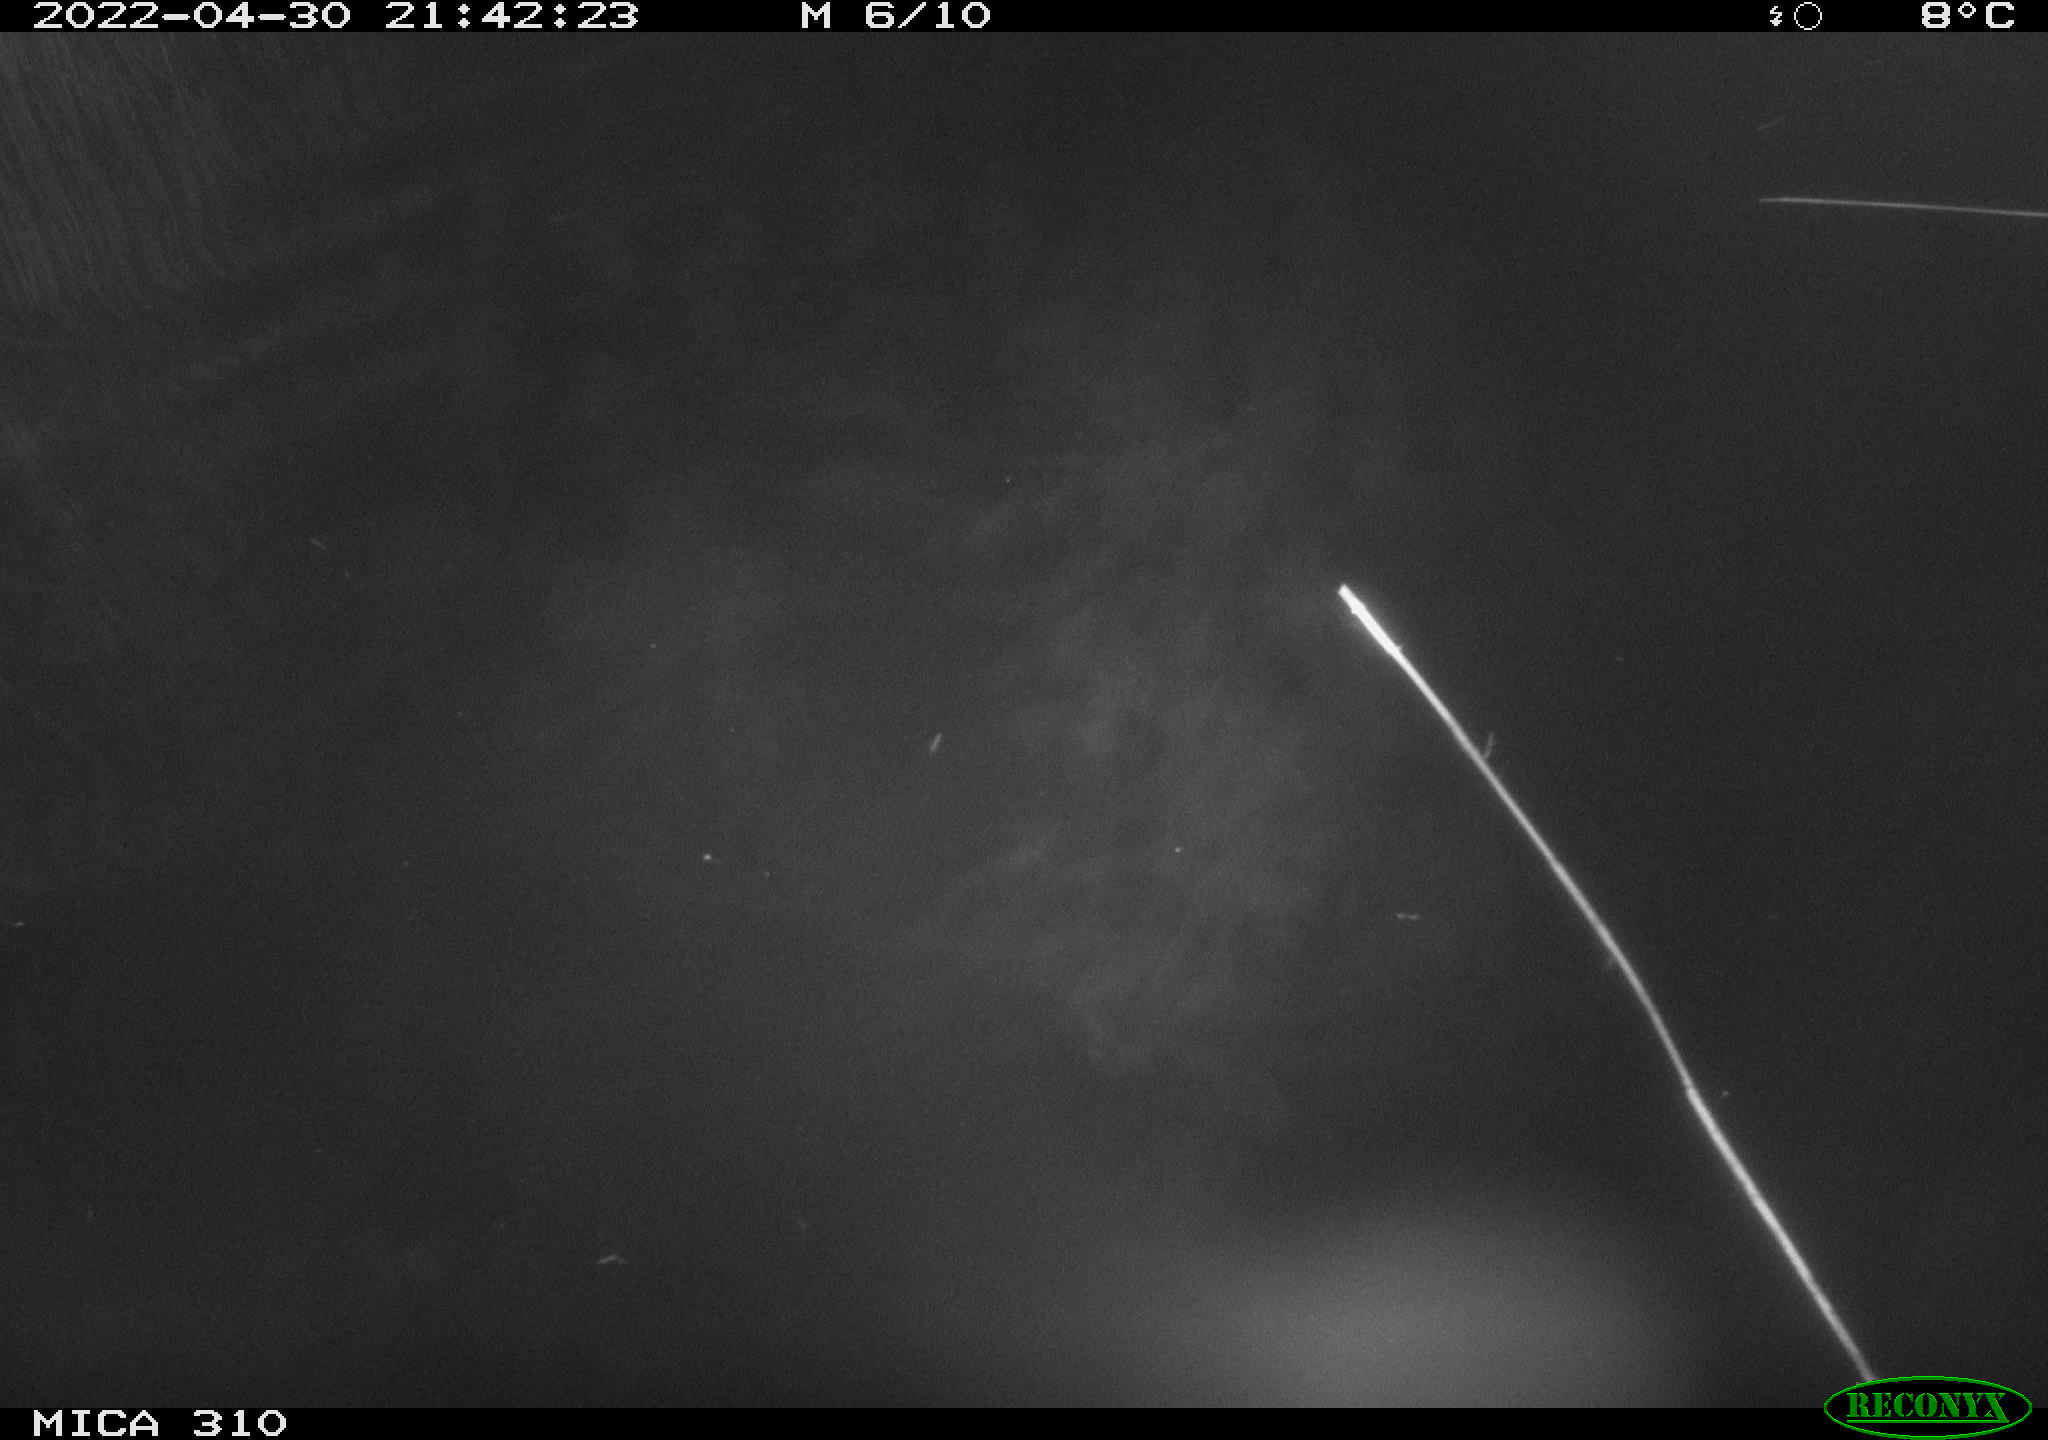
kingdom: Animalia
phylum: Chordata
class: Aves
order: Anseriformes
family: Anatidae
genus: Anas
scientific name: Anas platyrhynchos
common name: Mallard
